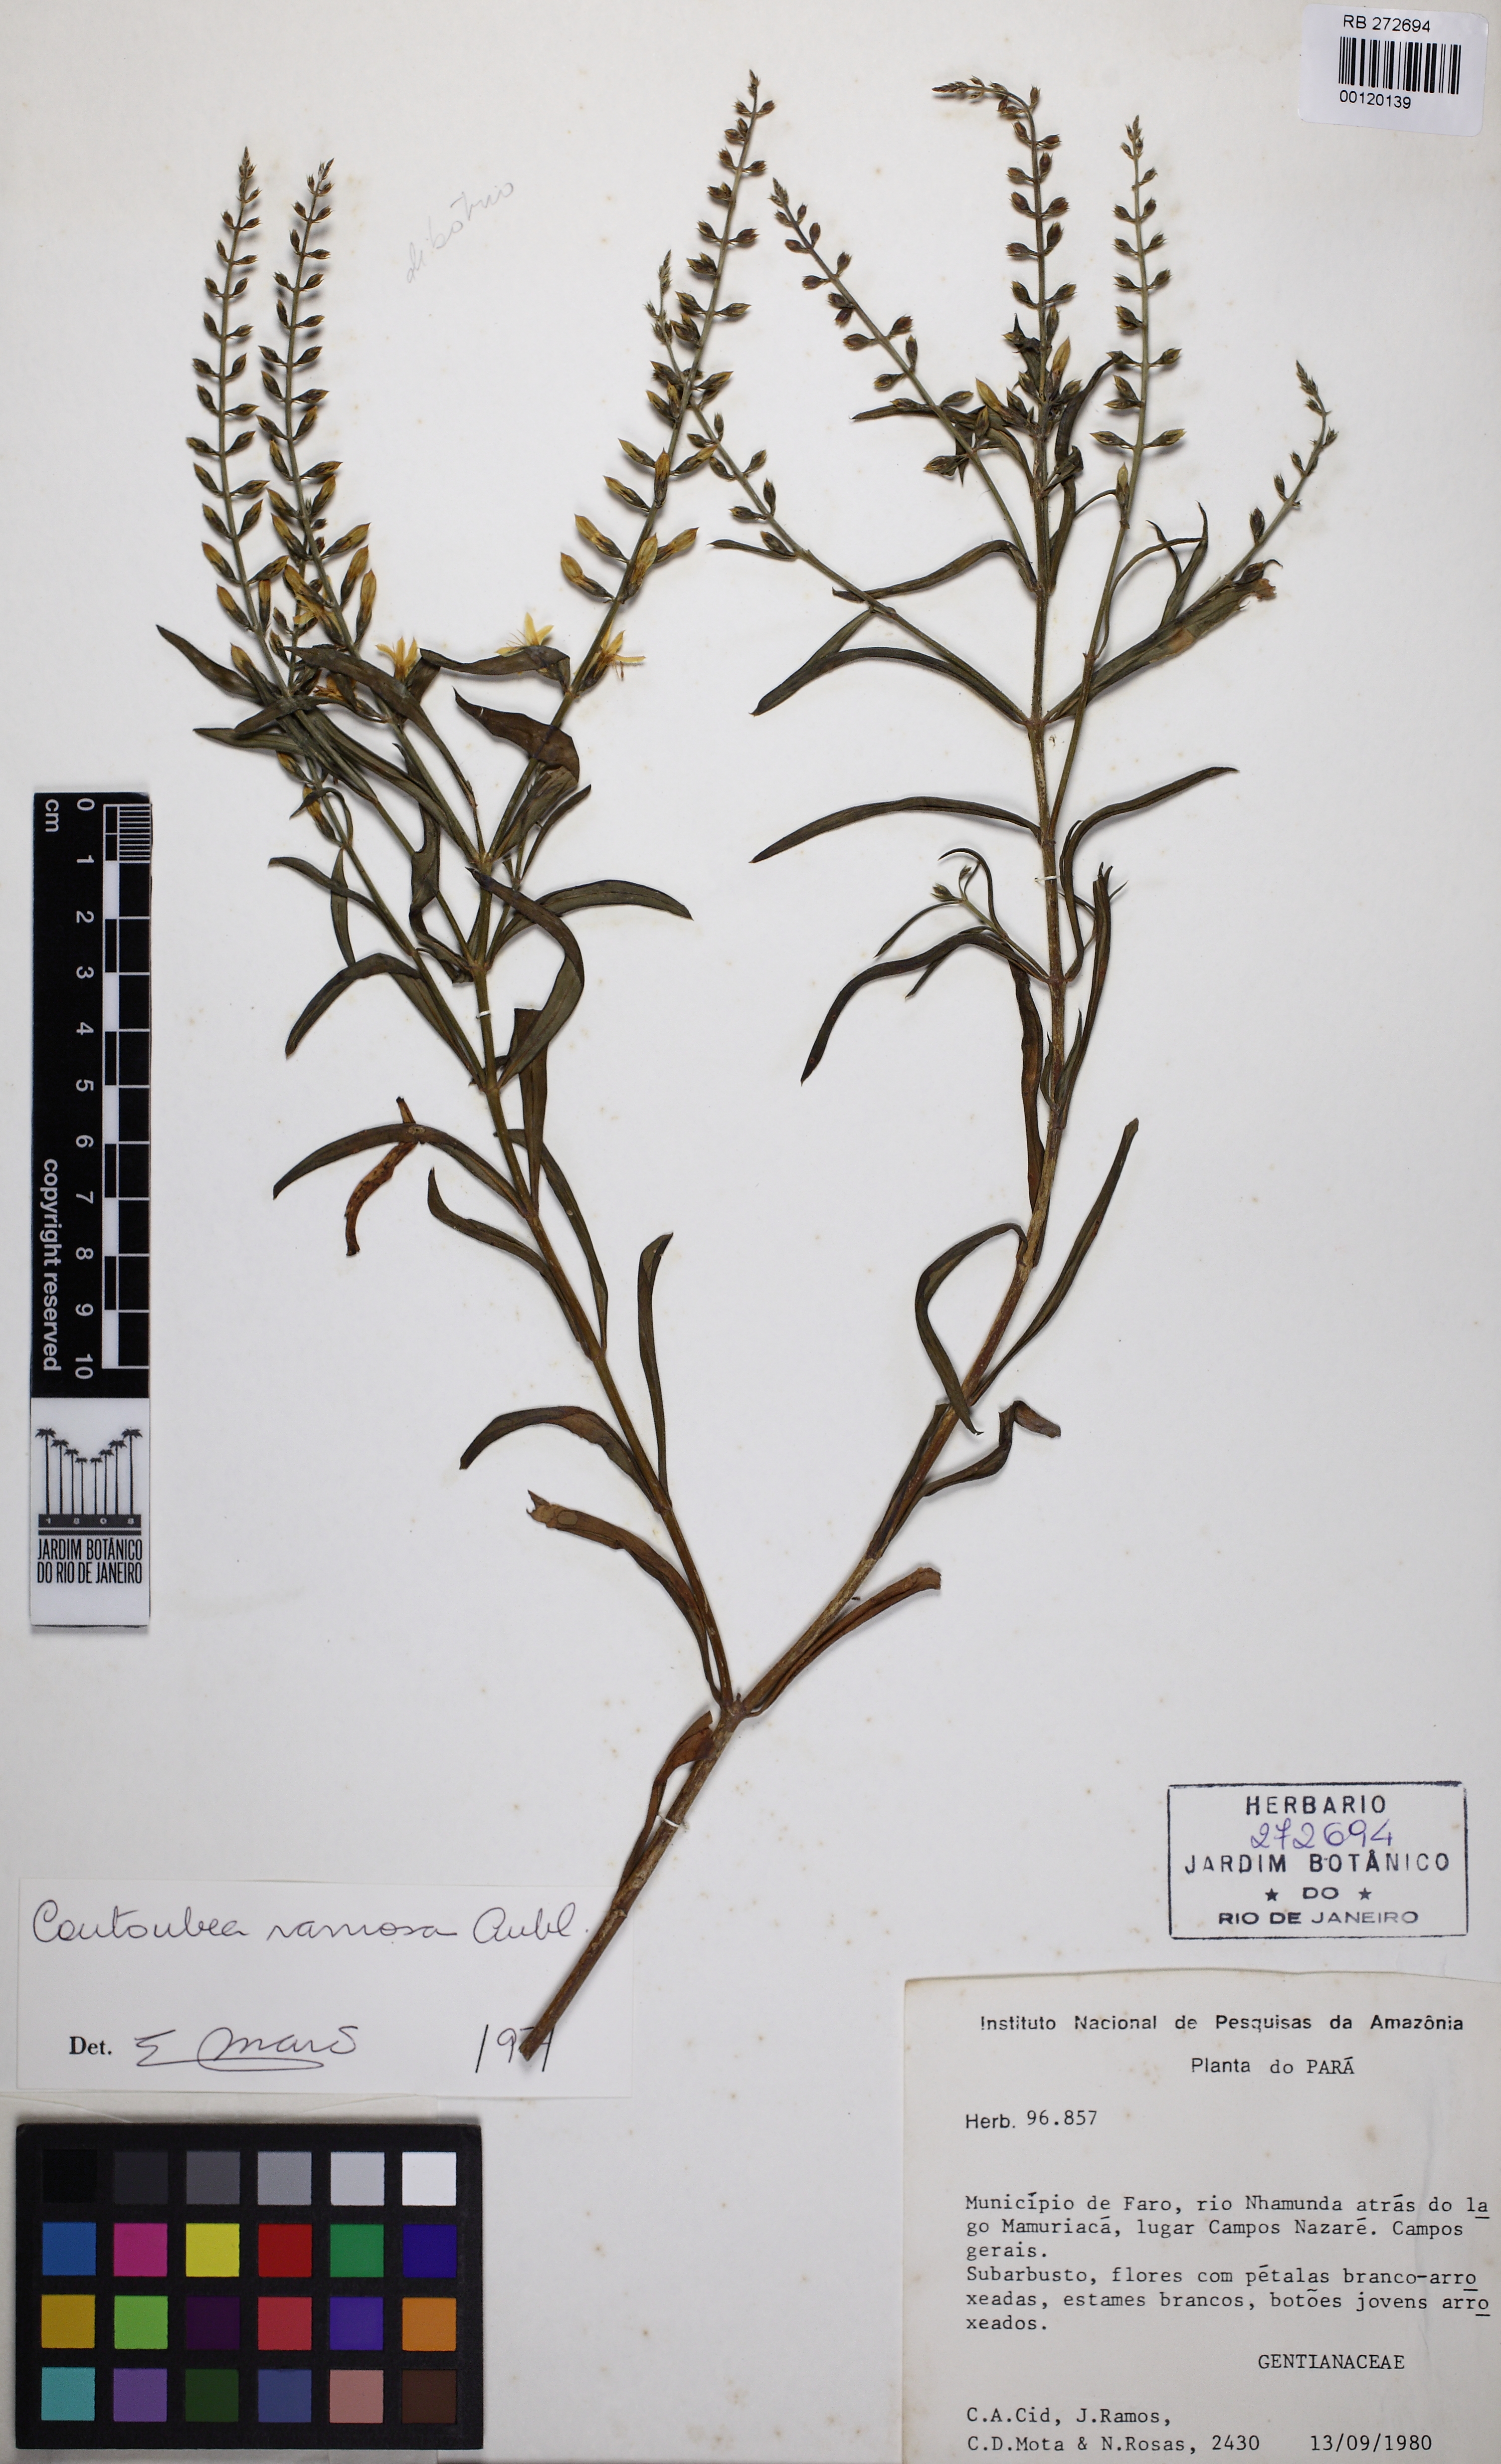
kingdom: Plantae
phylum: Tracheophyta
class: Magnoliopsida
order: Gentianales
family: Gentianaceae
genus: Coutoubea
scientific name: Coutoubea ramosa
